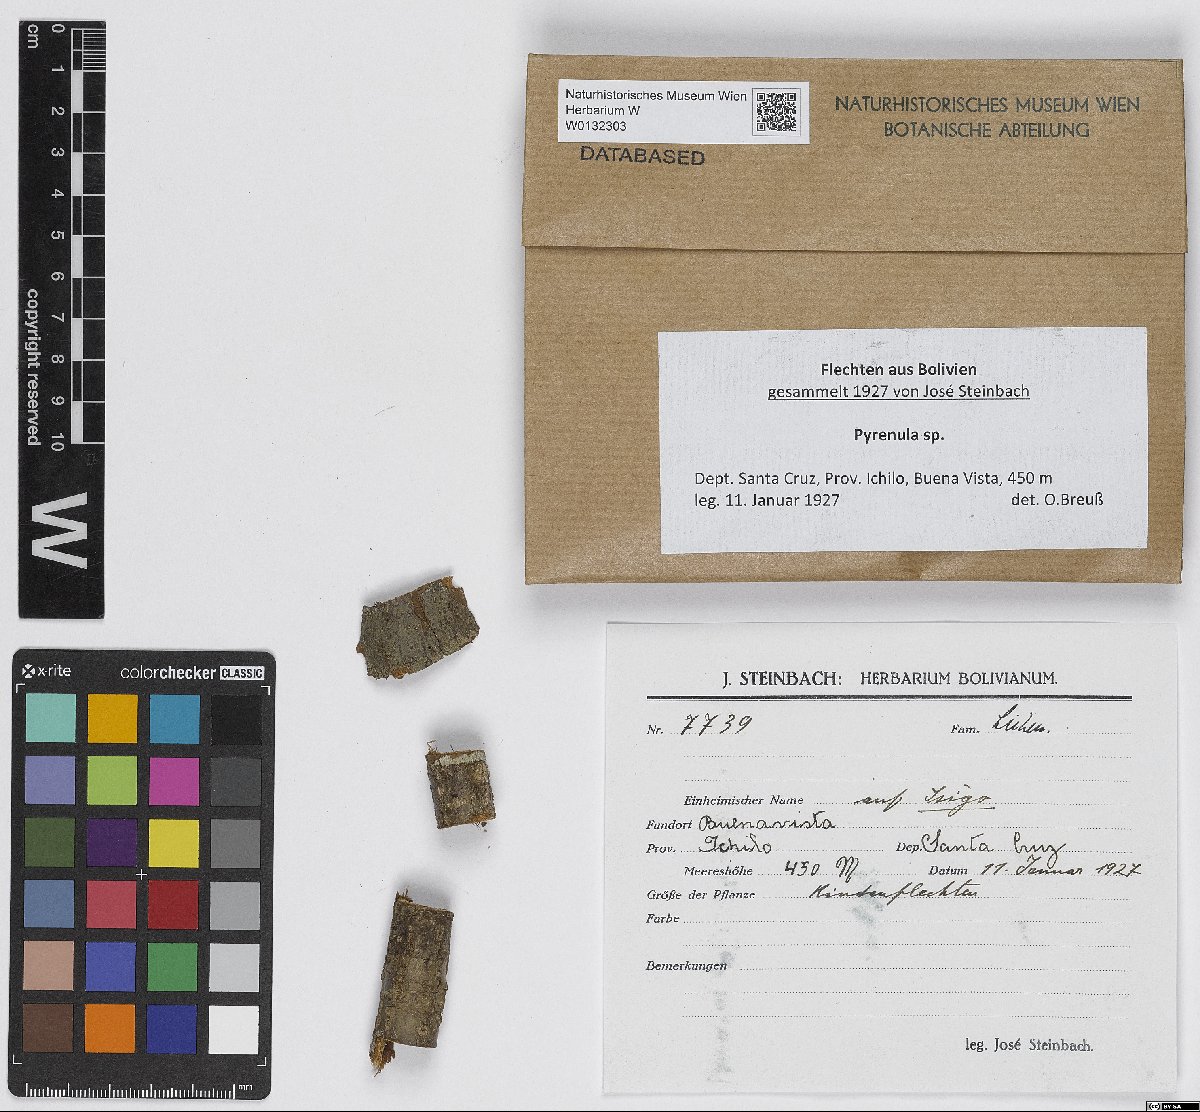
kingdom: Fungi
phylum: Ascomycota
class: Eurotiomycetes
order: Pyrenulales
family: Pyrenulaceae
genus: Pyrenula
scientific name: Pyrenula
